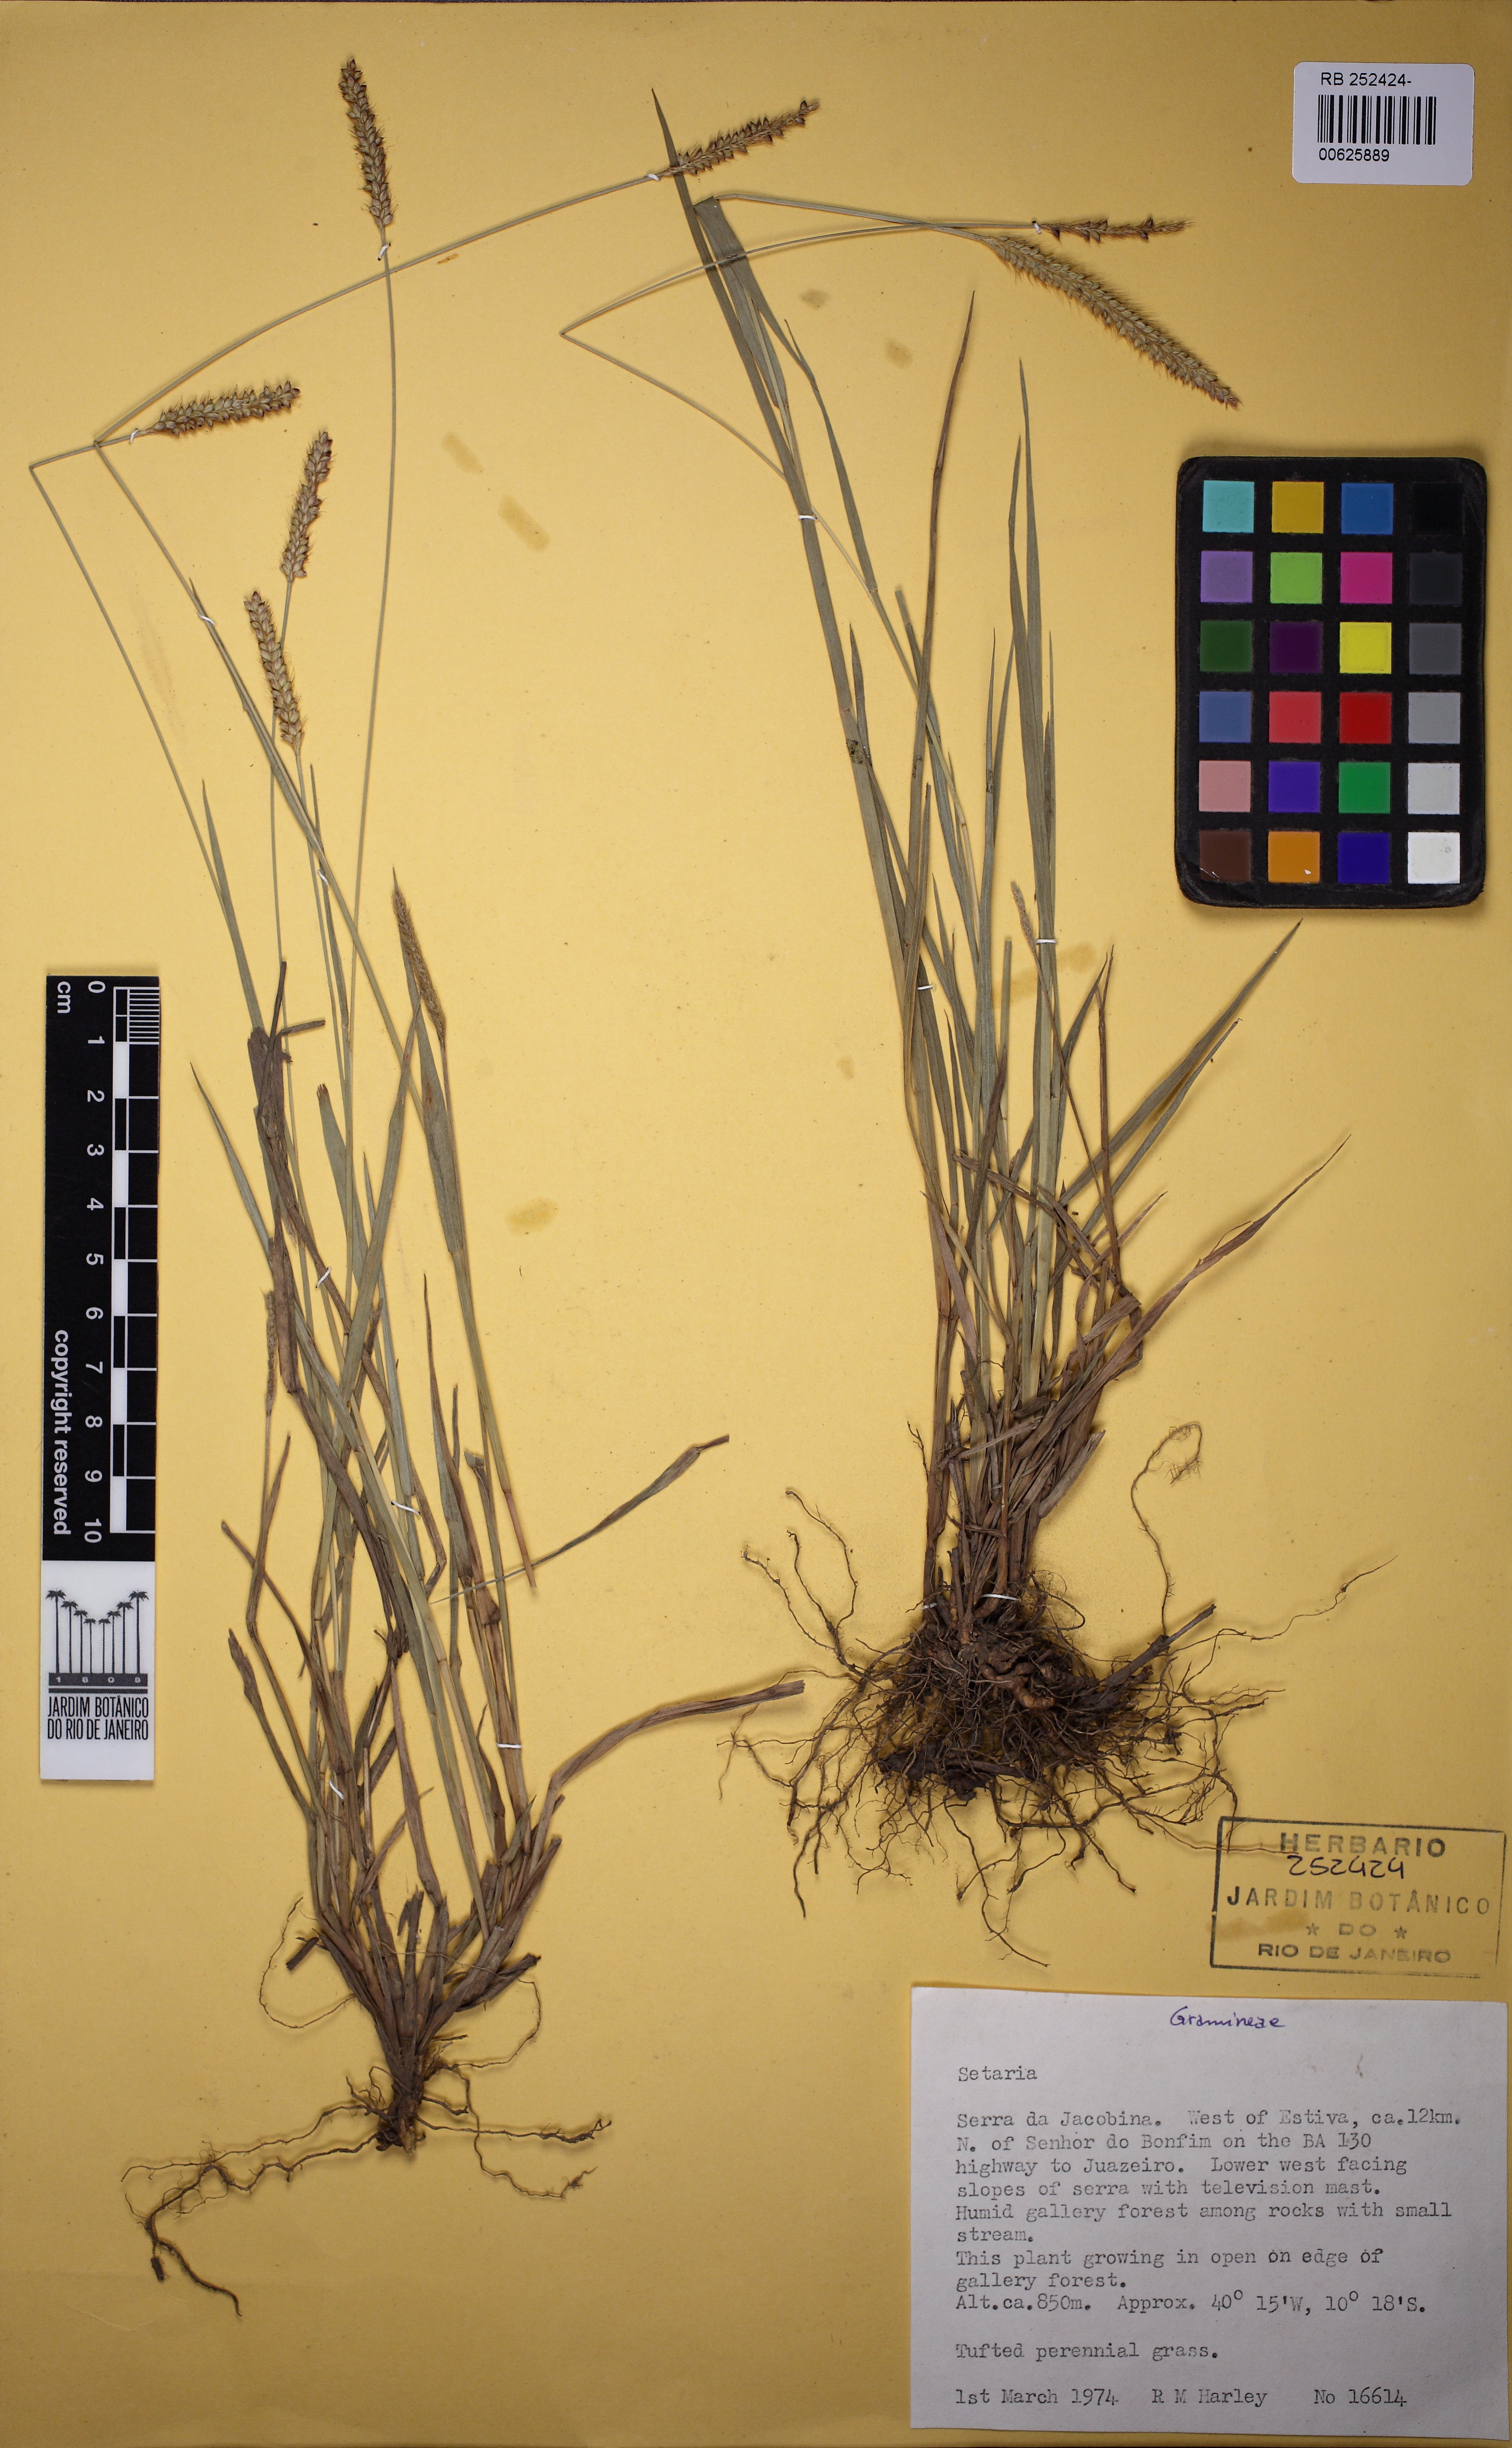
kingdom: Plantae
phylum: Tracheophyta
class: Liliopsida
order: Poales
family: Poaceae
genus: Setaria
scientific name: Setaria
